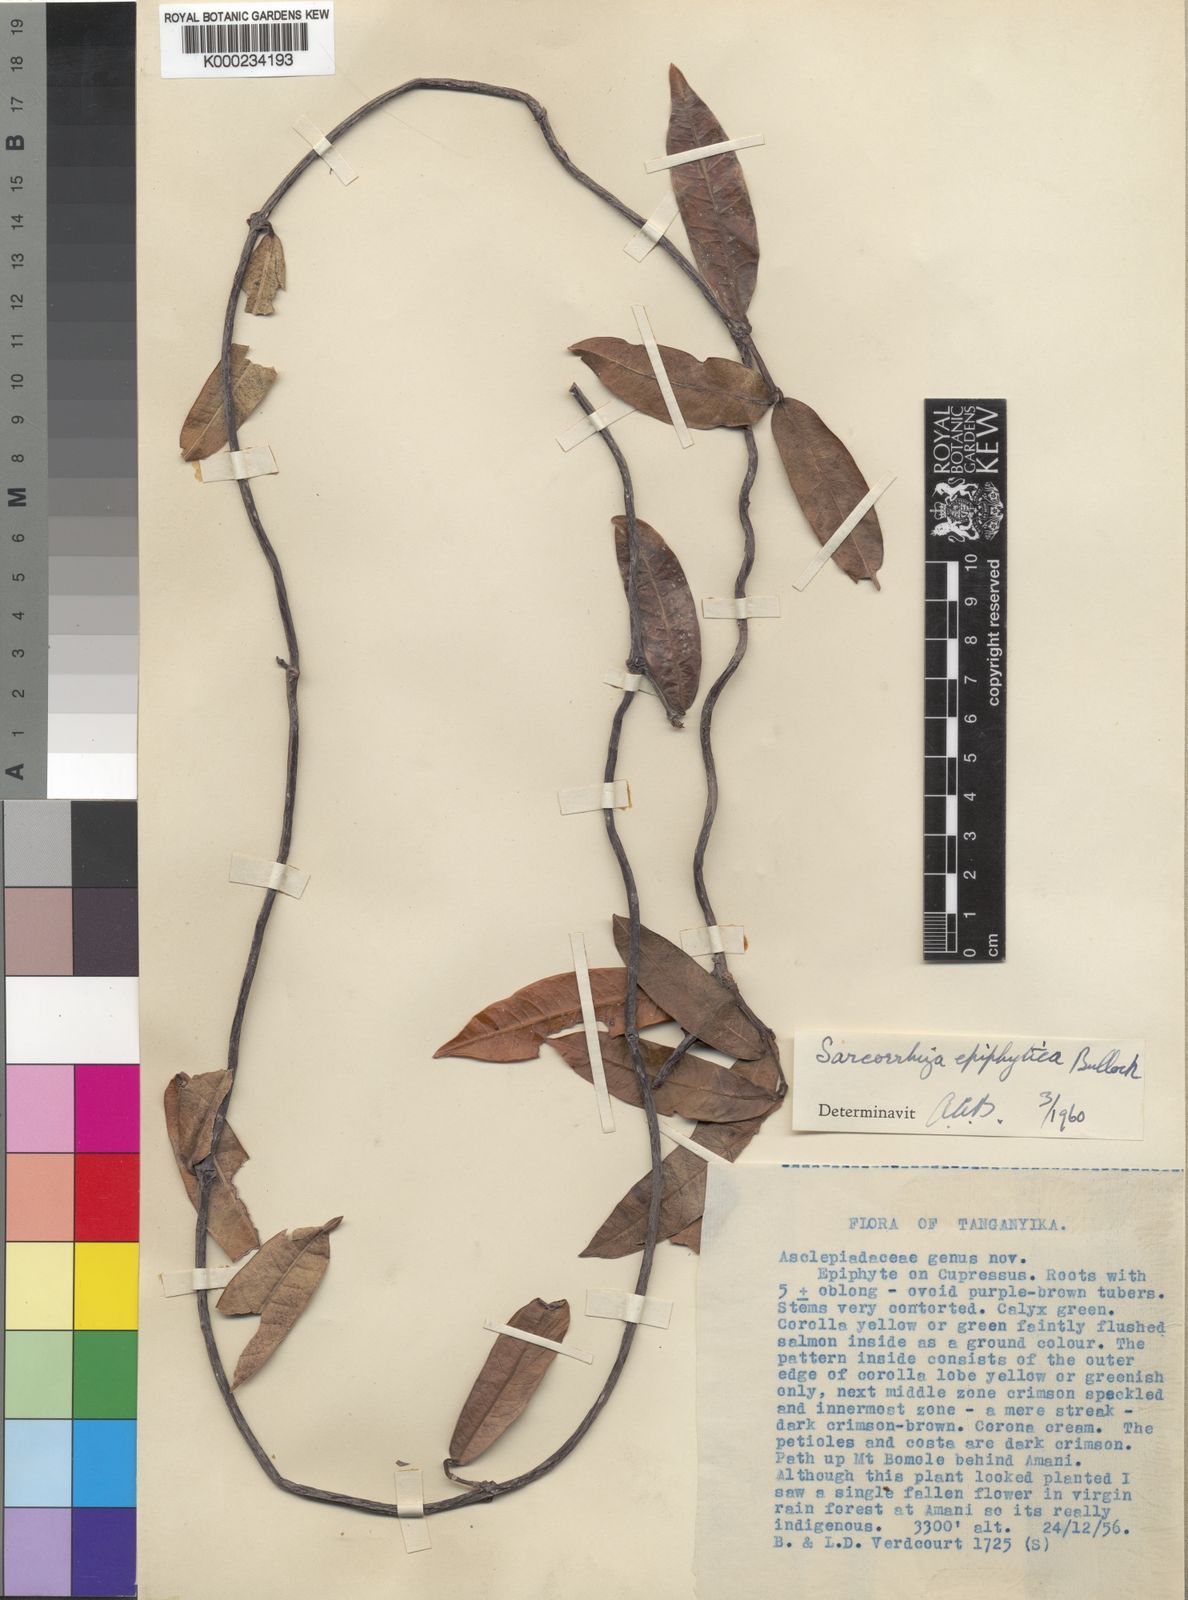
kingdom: Plantae
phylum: Tracheophyta
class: Magnoliopsida
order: Gentianales
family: Apocynaceae
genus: Sarcorrhiza
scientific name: Sarcorrhiza epiphytica
